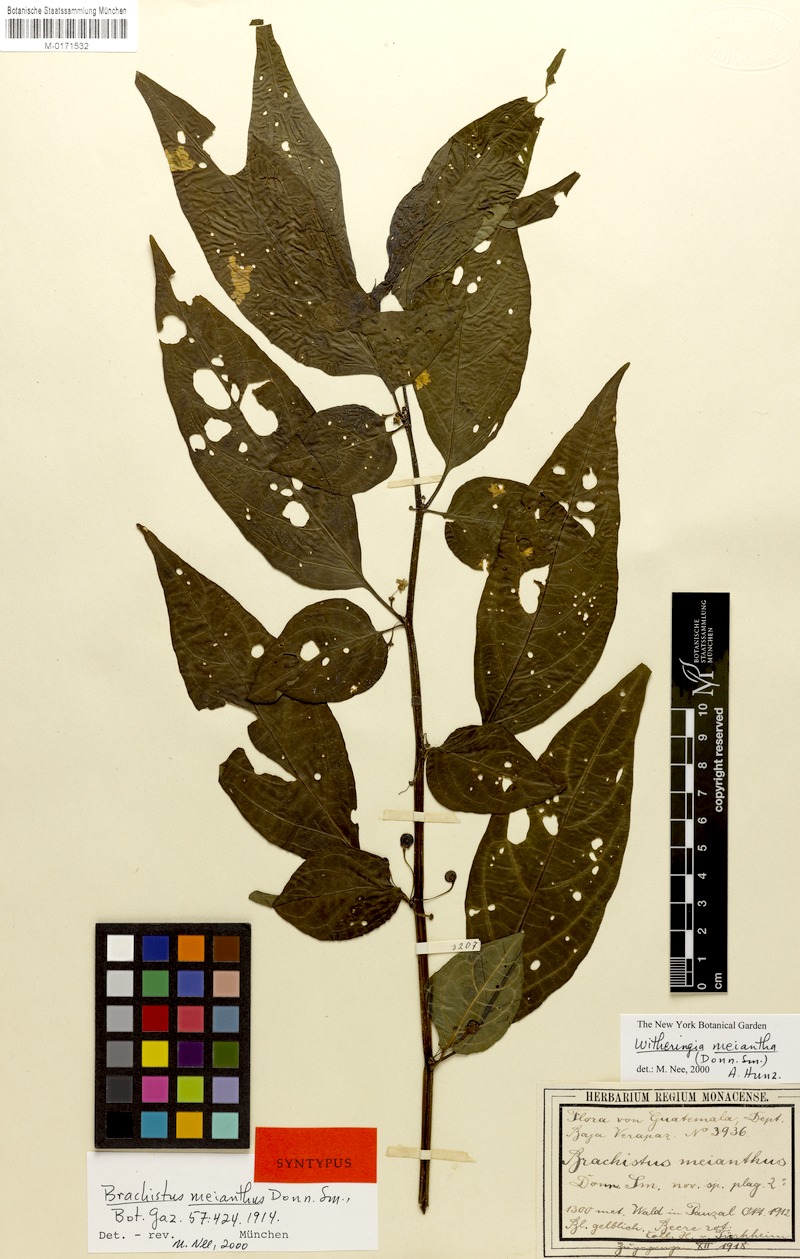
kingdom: Plantae
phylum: Tracheophyta
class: Magnoliopsida
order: Solanales
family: Solanaceae
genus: Witheringia
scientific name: Witheringia meiantha
